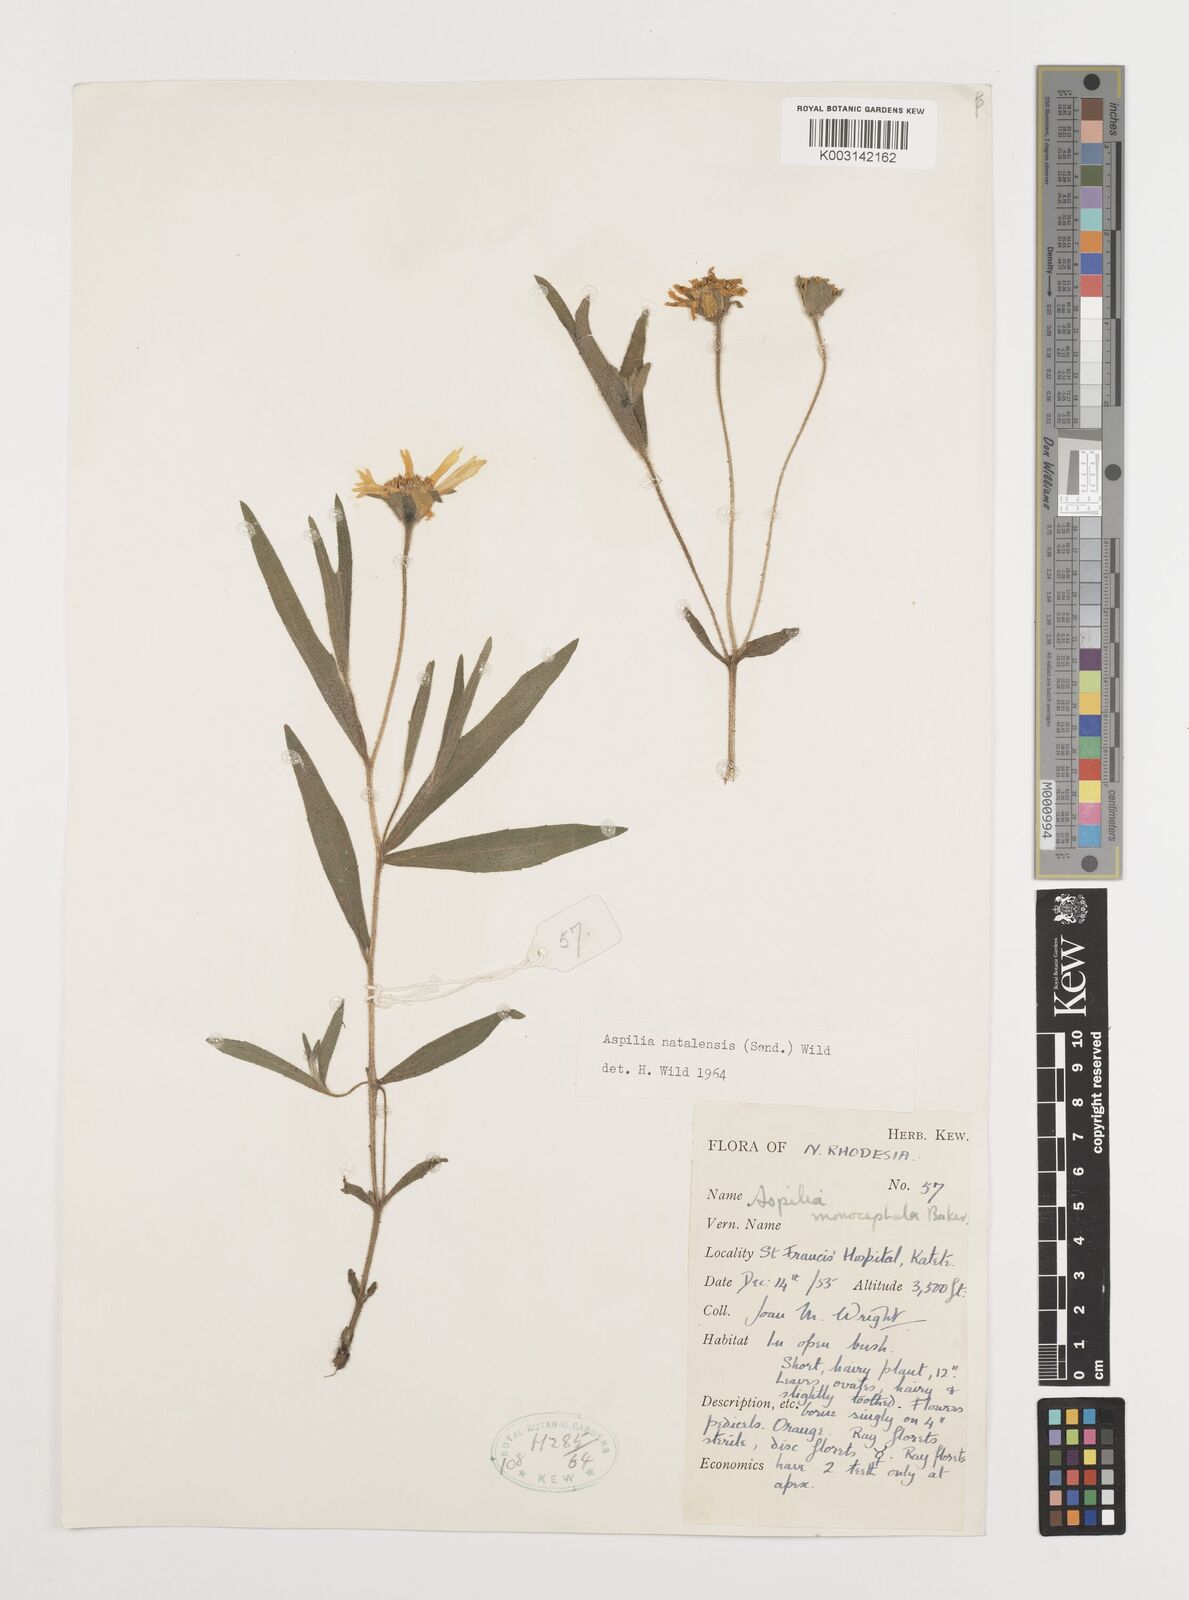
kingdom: Plantae
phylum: Tracheophyta
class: Magnoliopsida
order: Asterales
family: Asteraceae
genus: Aspilia
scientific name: Aspilia natalensis
